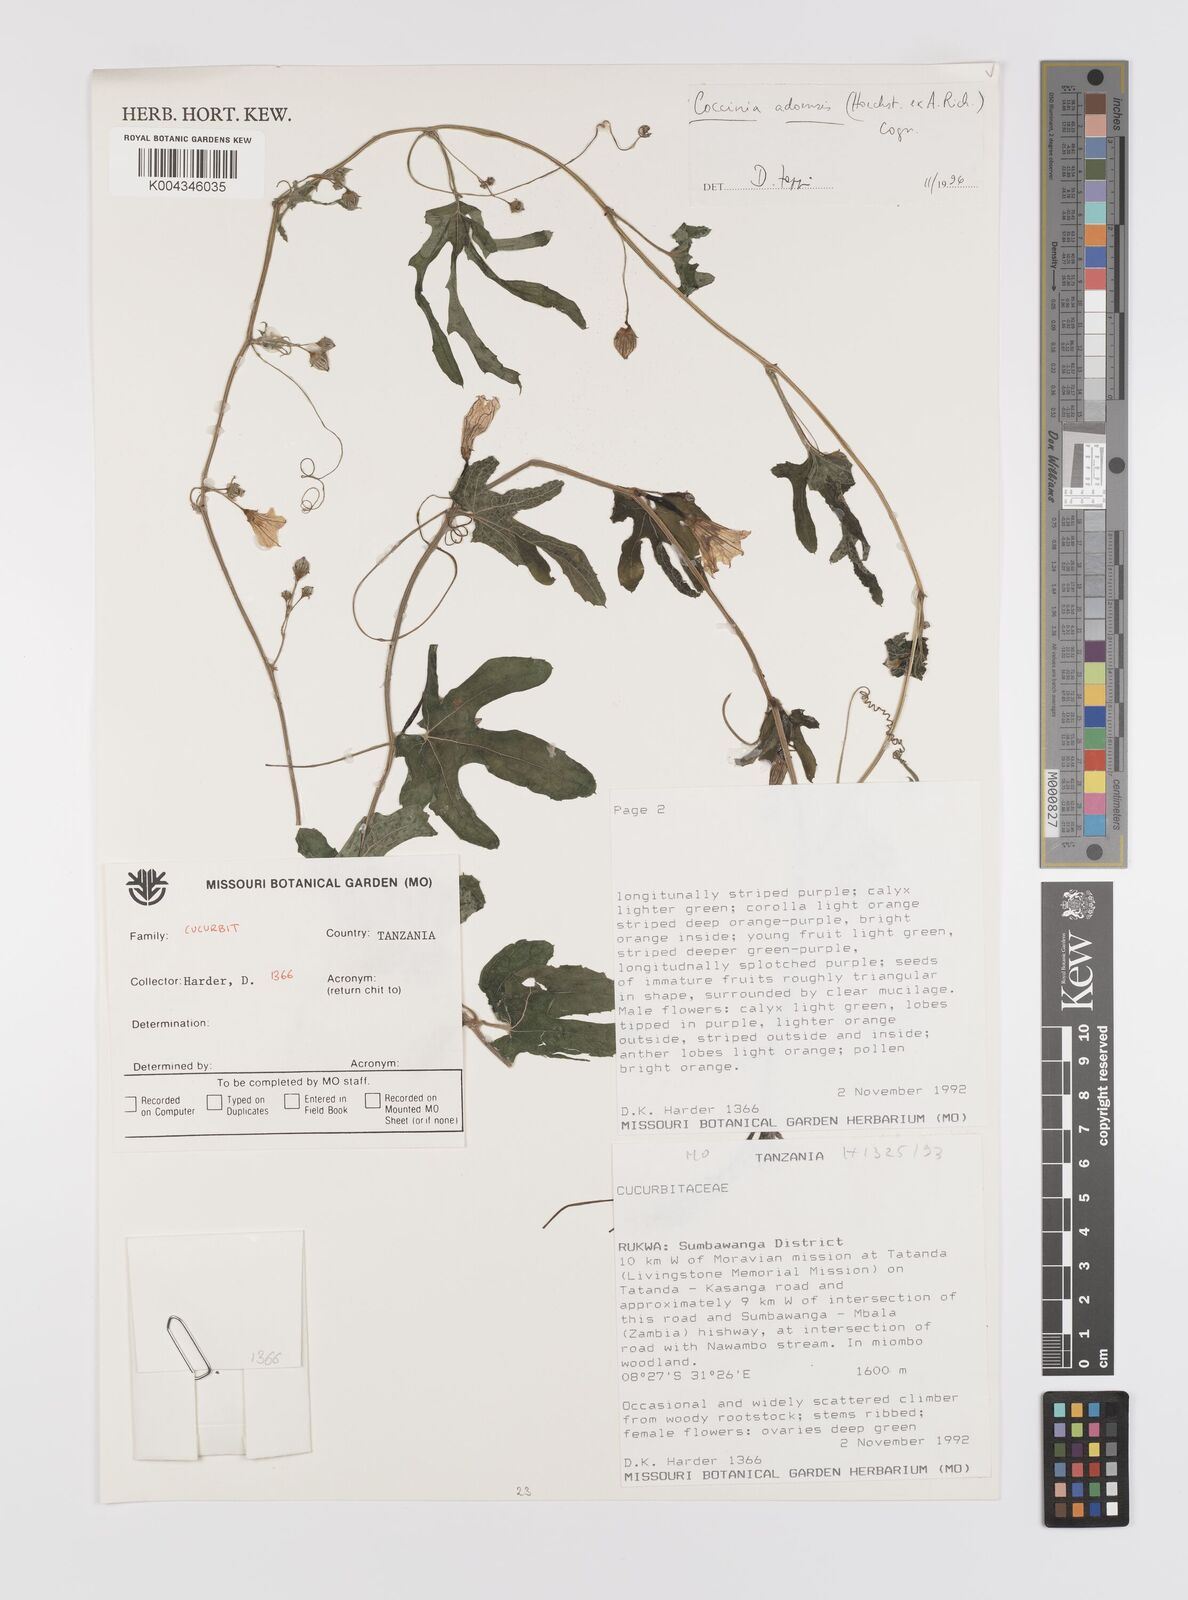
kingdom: Plantae
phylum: Tracheophyta
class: Magnoliopsida
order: Cucurbitales
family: Cucurbitaceae
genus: Coccinia
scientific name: Coccinia adoensis
